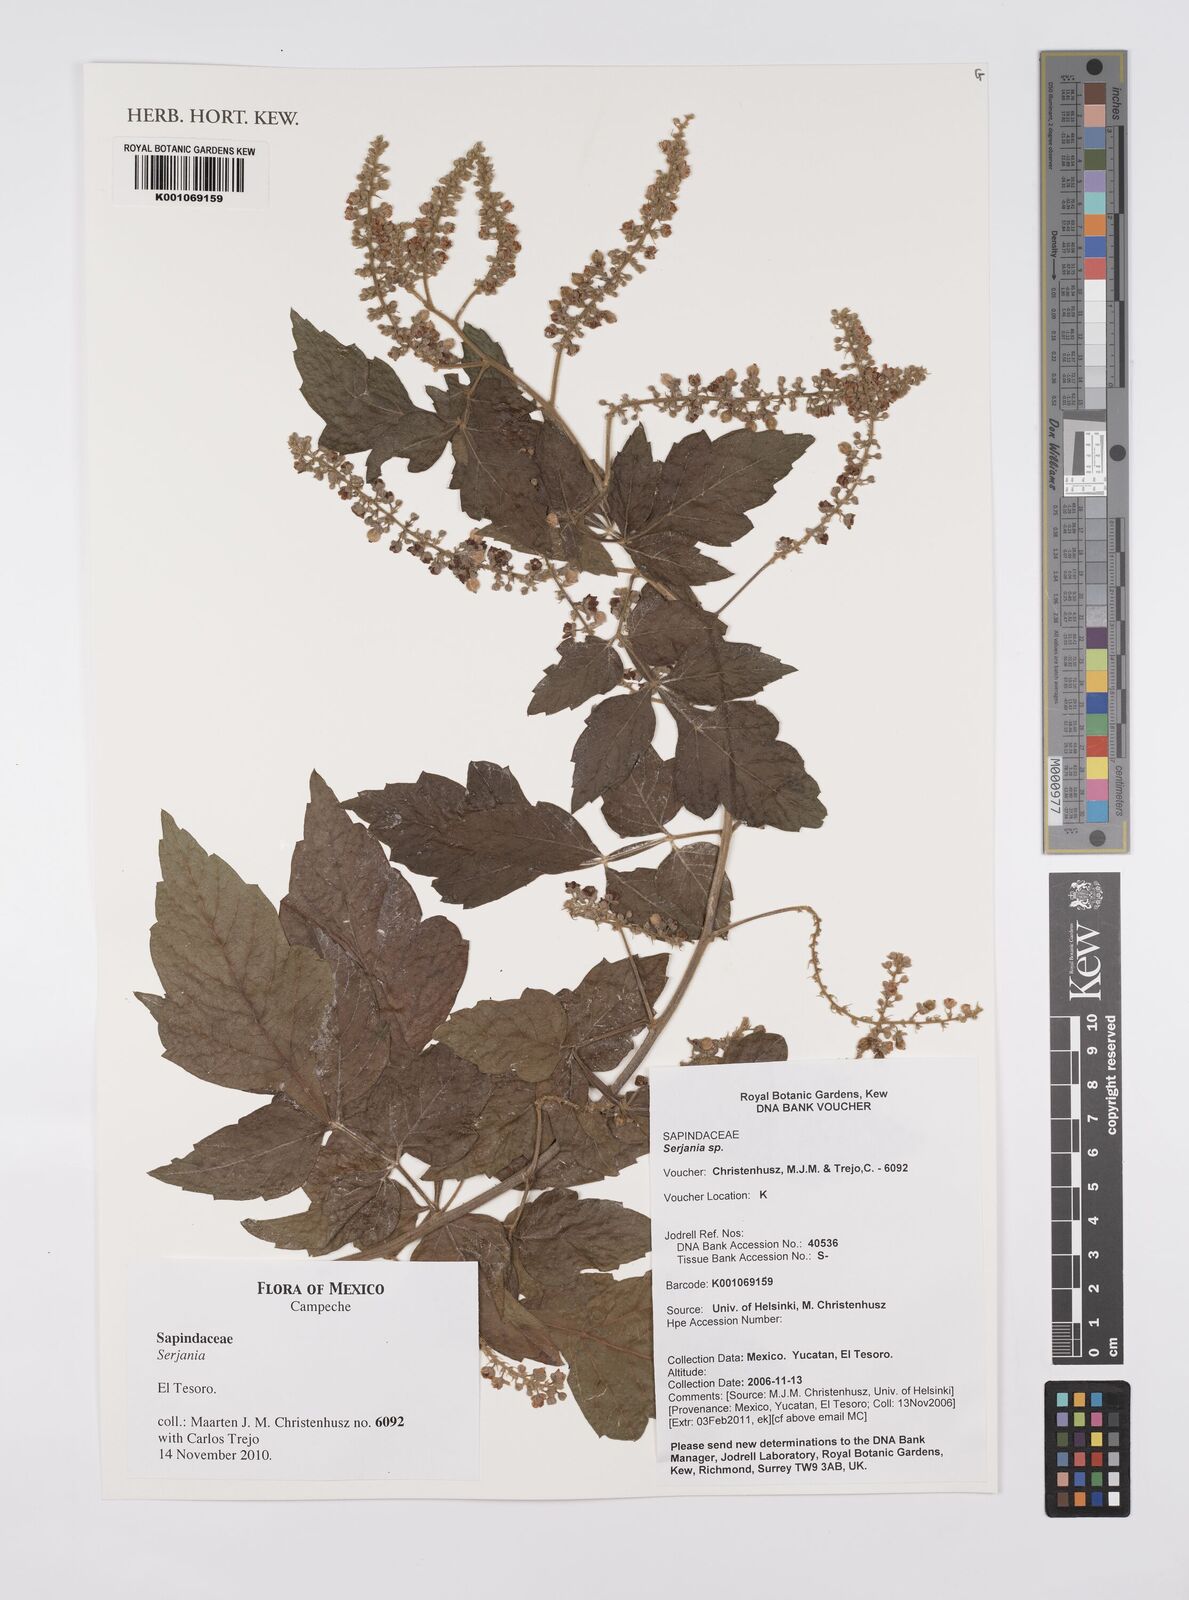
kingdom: Plantae
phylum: Tracheophyta
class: Magnoliopsida
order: Sapindales
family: Sapindaceae
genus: Serjania
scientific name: Serjania
